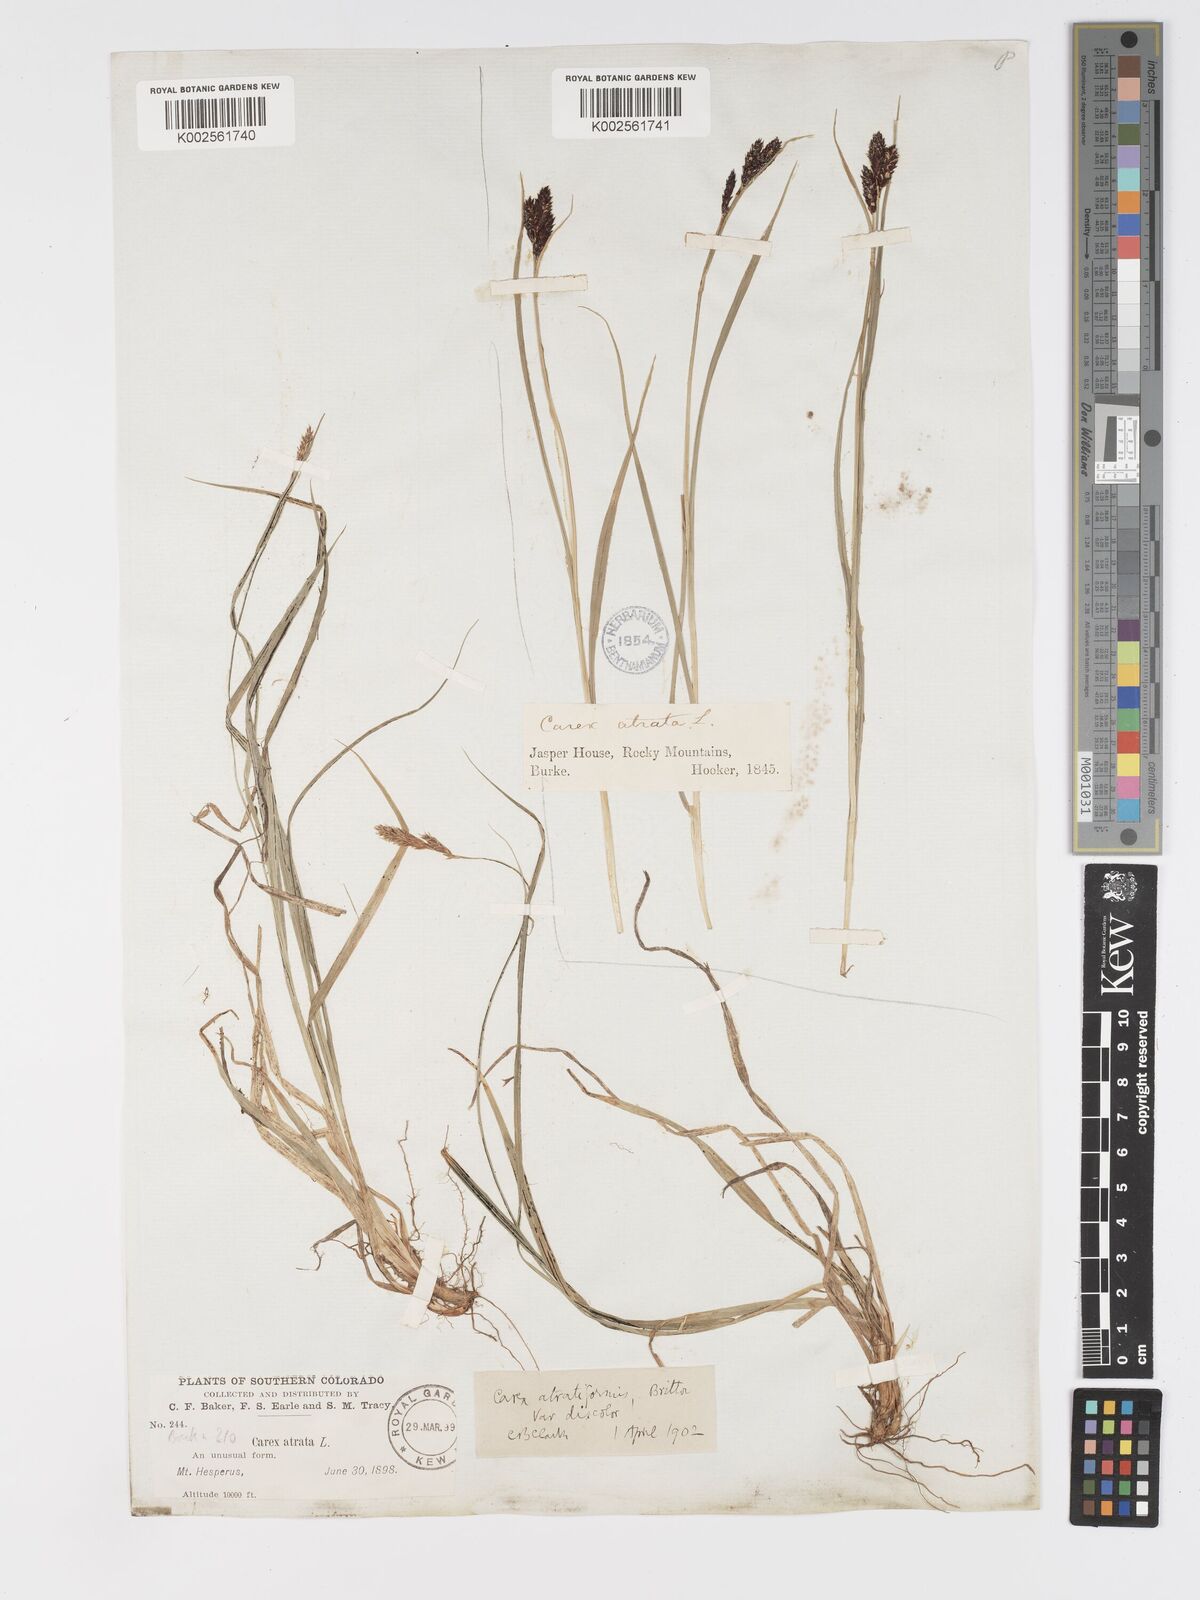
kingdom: Plantae
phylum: Tracheophyta
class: Liliopsida
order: Poales
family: Cyperaceae
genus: Carex
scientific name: Carex atratiformis
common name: Black sedge
